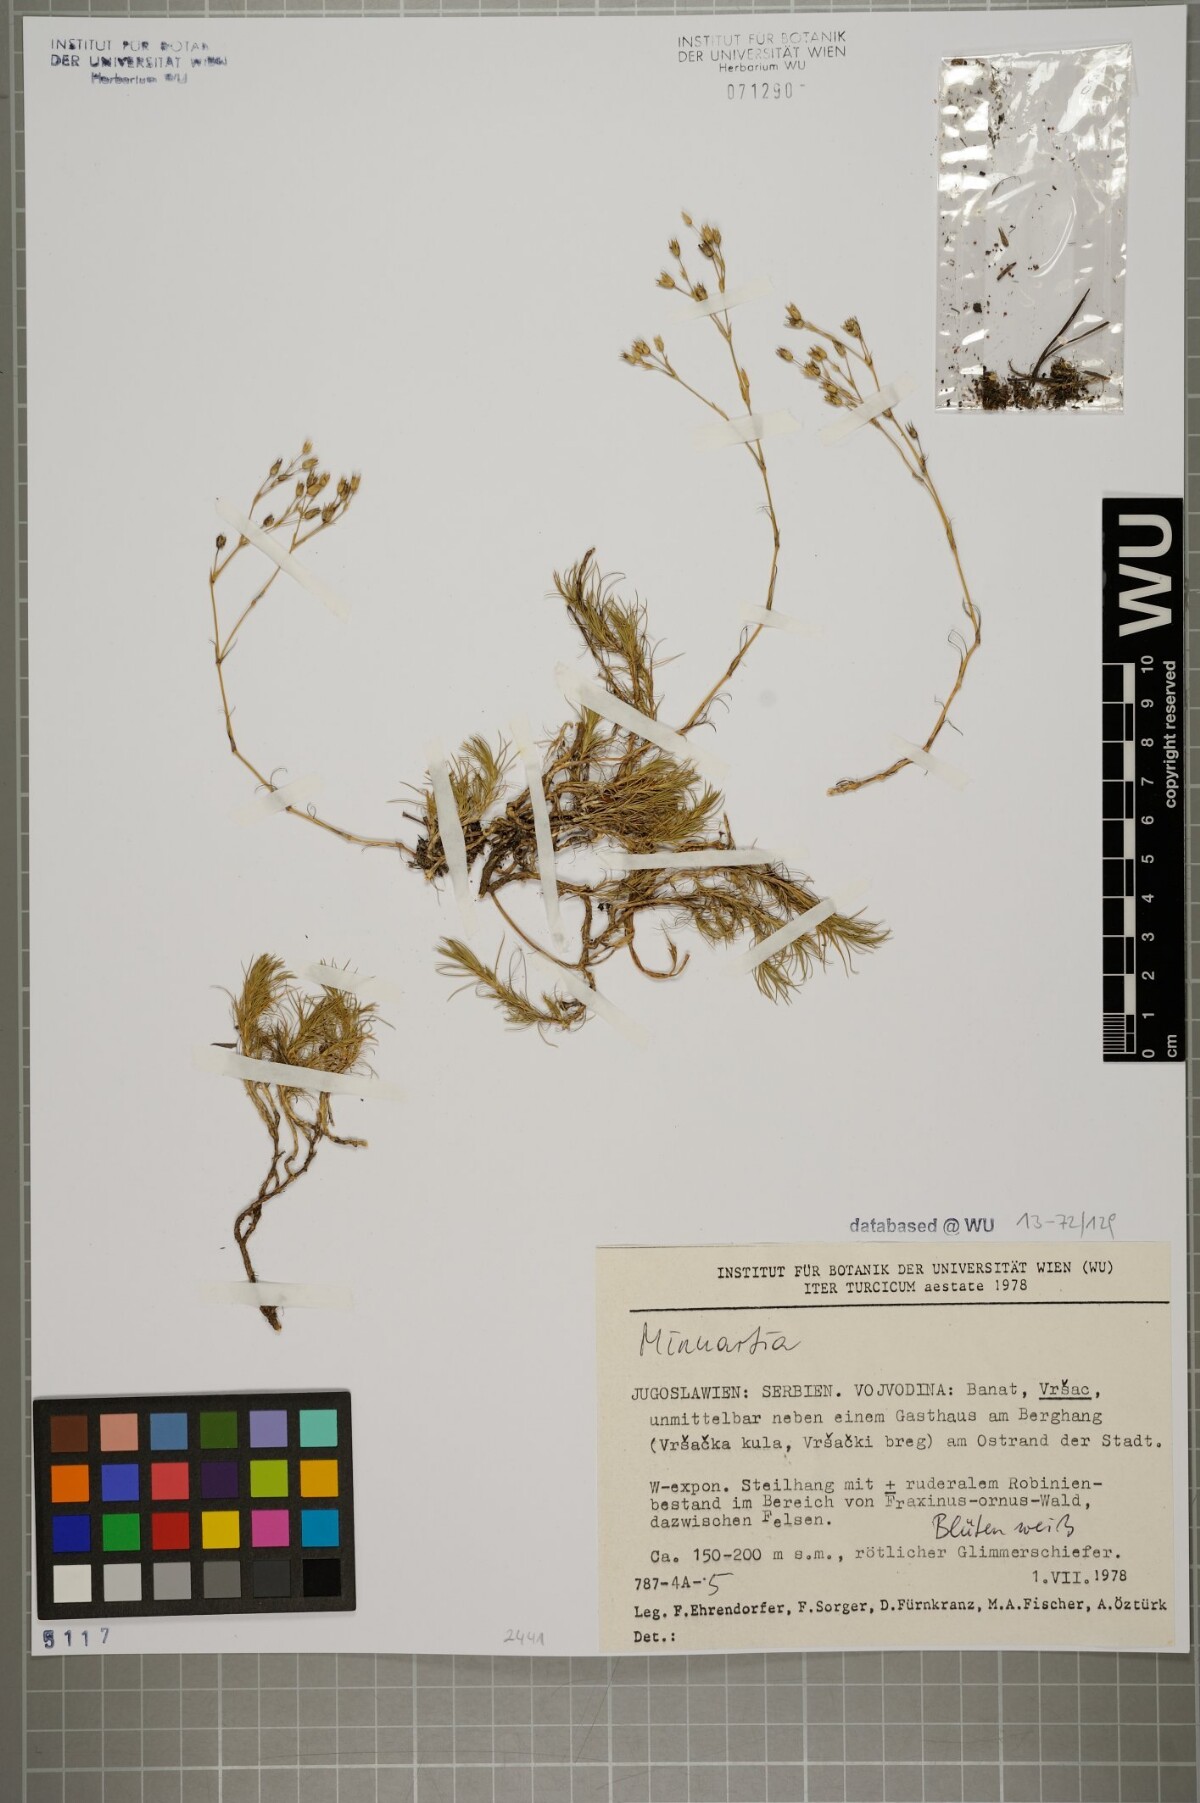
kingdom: Plantae
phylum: Tracheophyta
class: Magnoliopsida
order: Caryophyllales
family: Caryophyllaceae
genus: Minuartia
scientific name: Minuartia hirsuta
